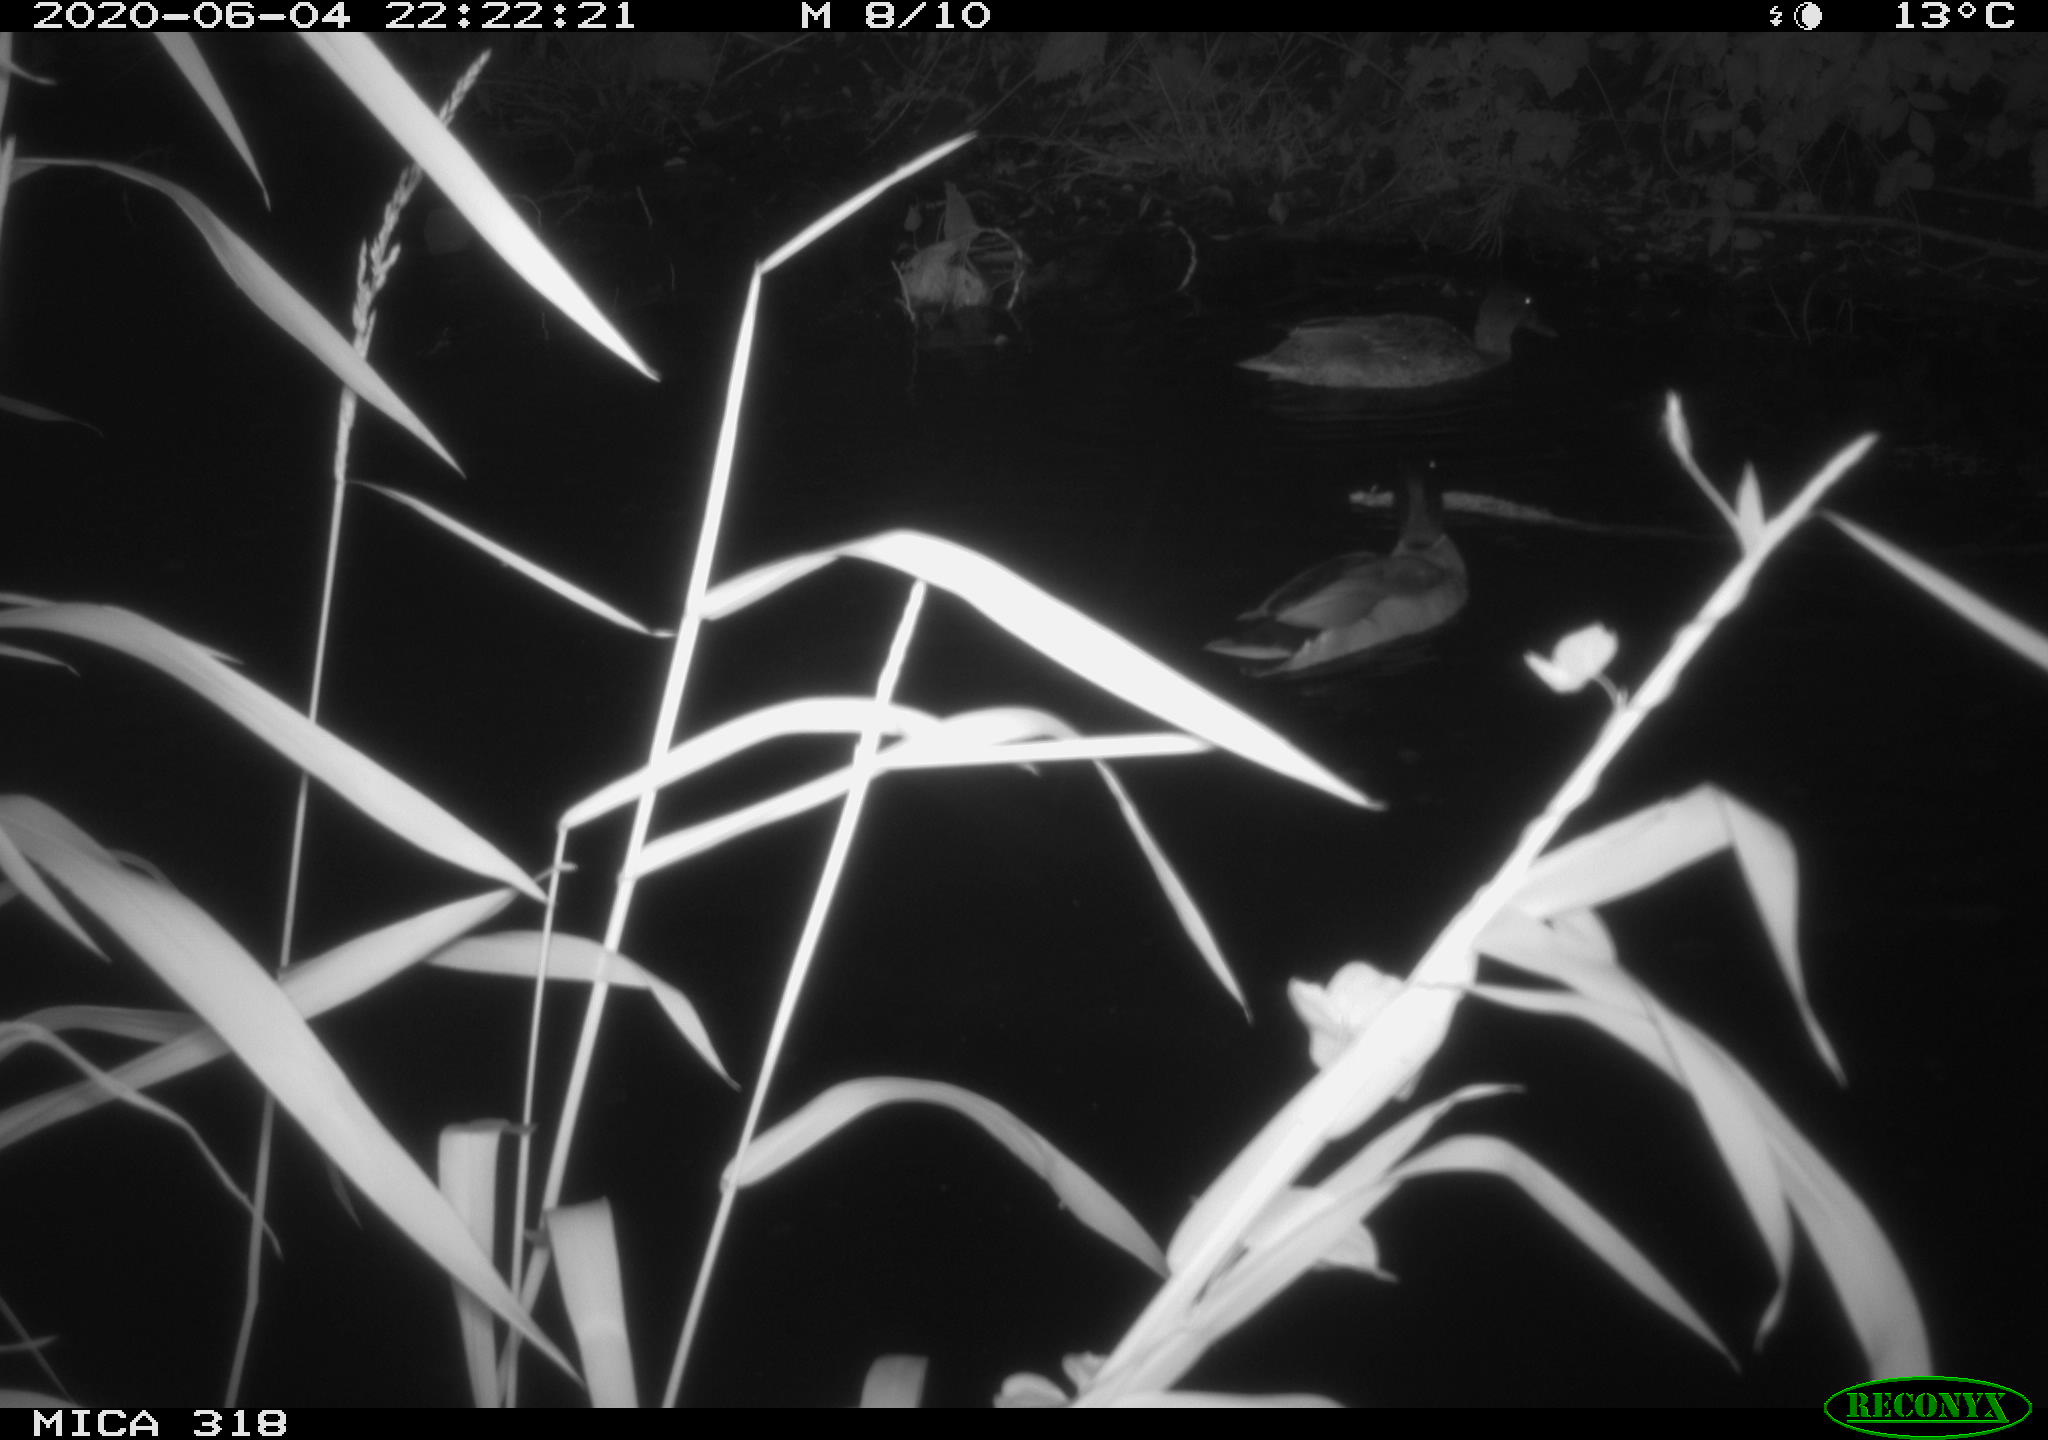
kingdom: Animalia
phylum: Chordata
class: Aves
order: Anseriformes
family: Anatidae
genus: Anas
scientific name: Anas platyrhynchos
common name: Mallard
